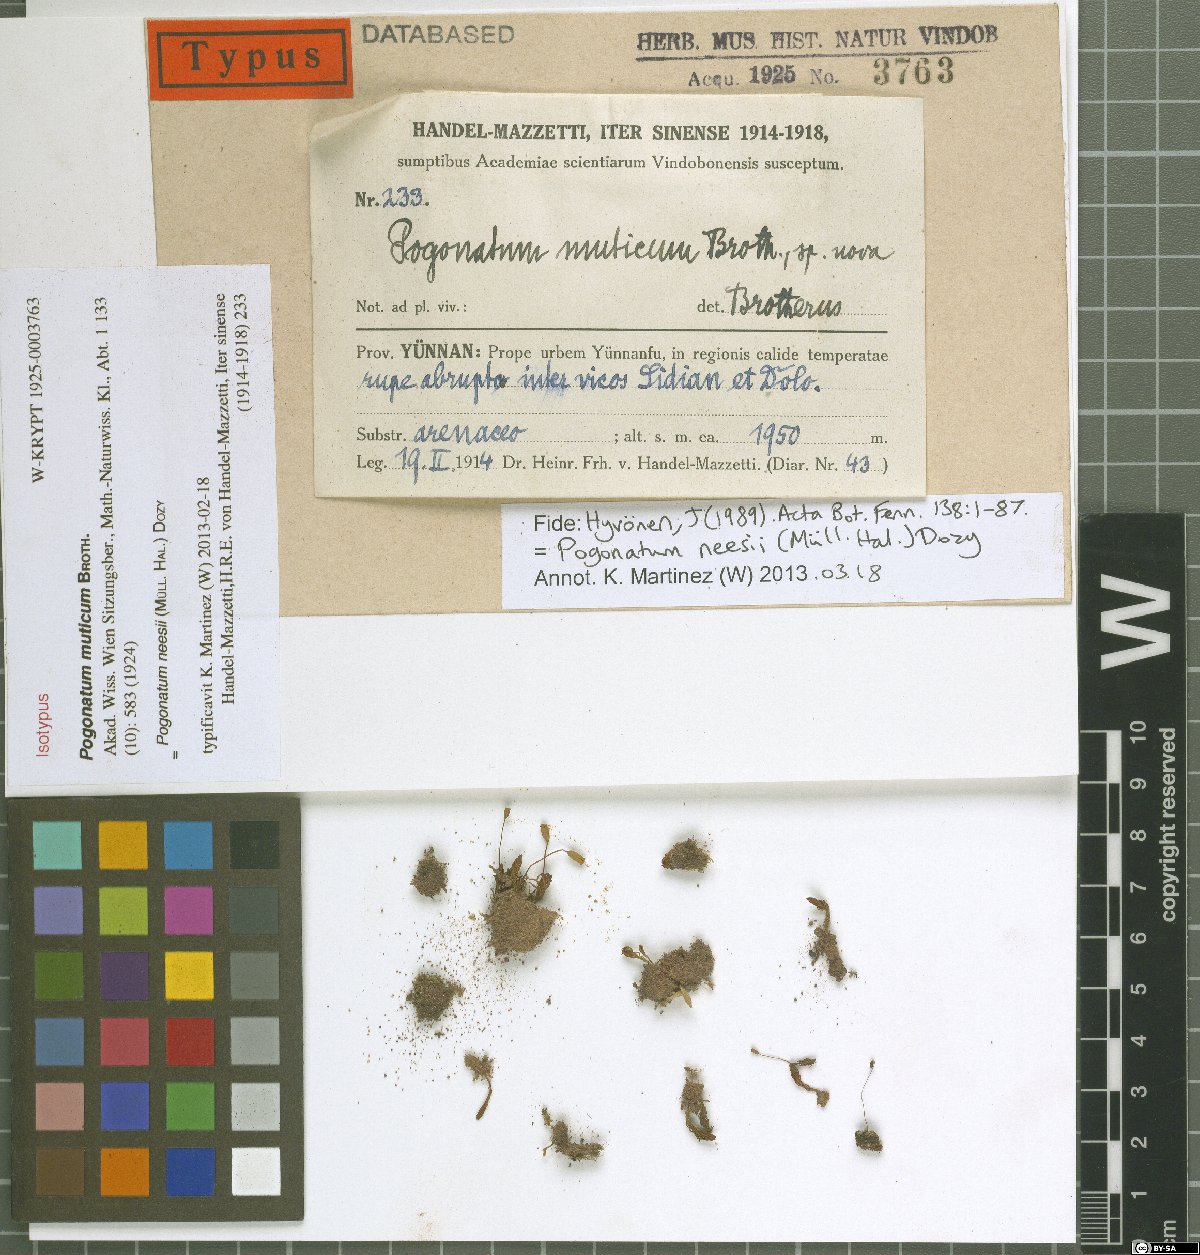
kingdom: Plantae
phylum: Bryophyta
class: Polytrichopsida
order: Polytrichales
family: Polytrichaceae
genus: Pogonatum
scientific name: Pogonatum neesii
